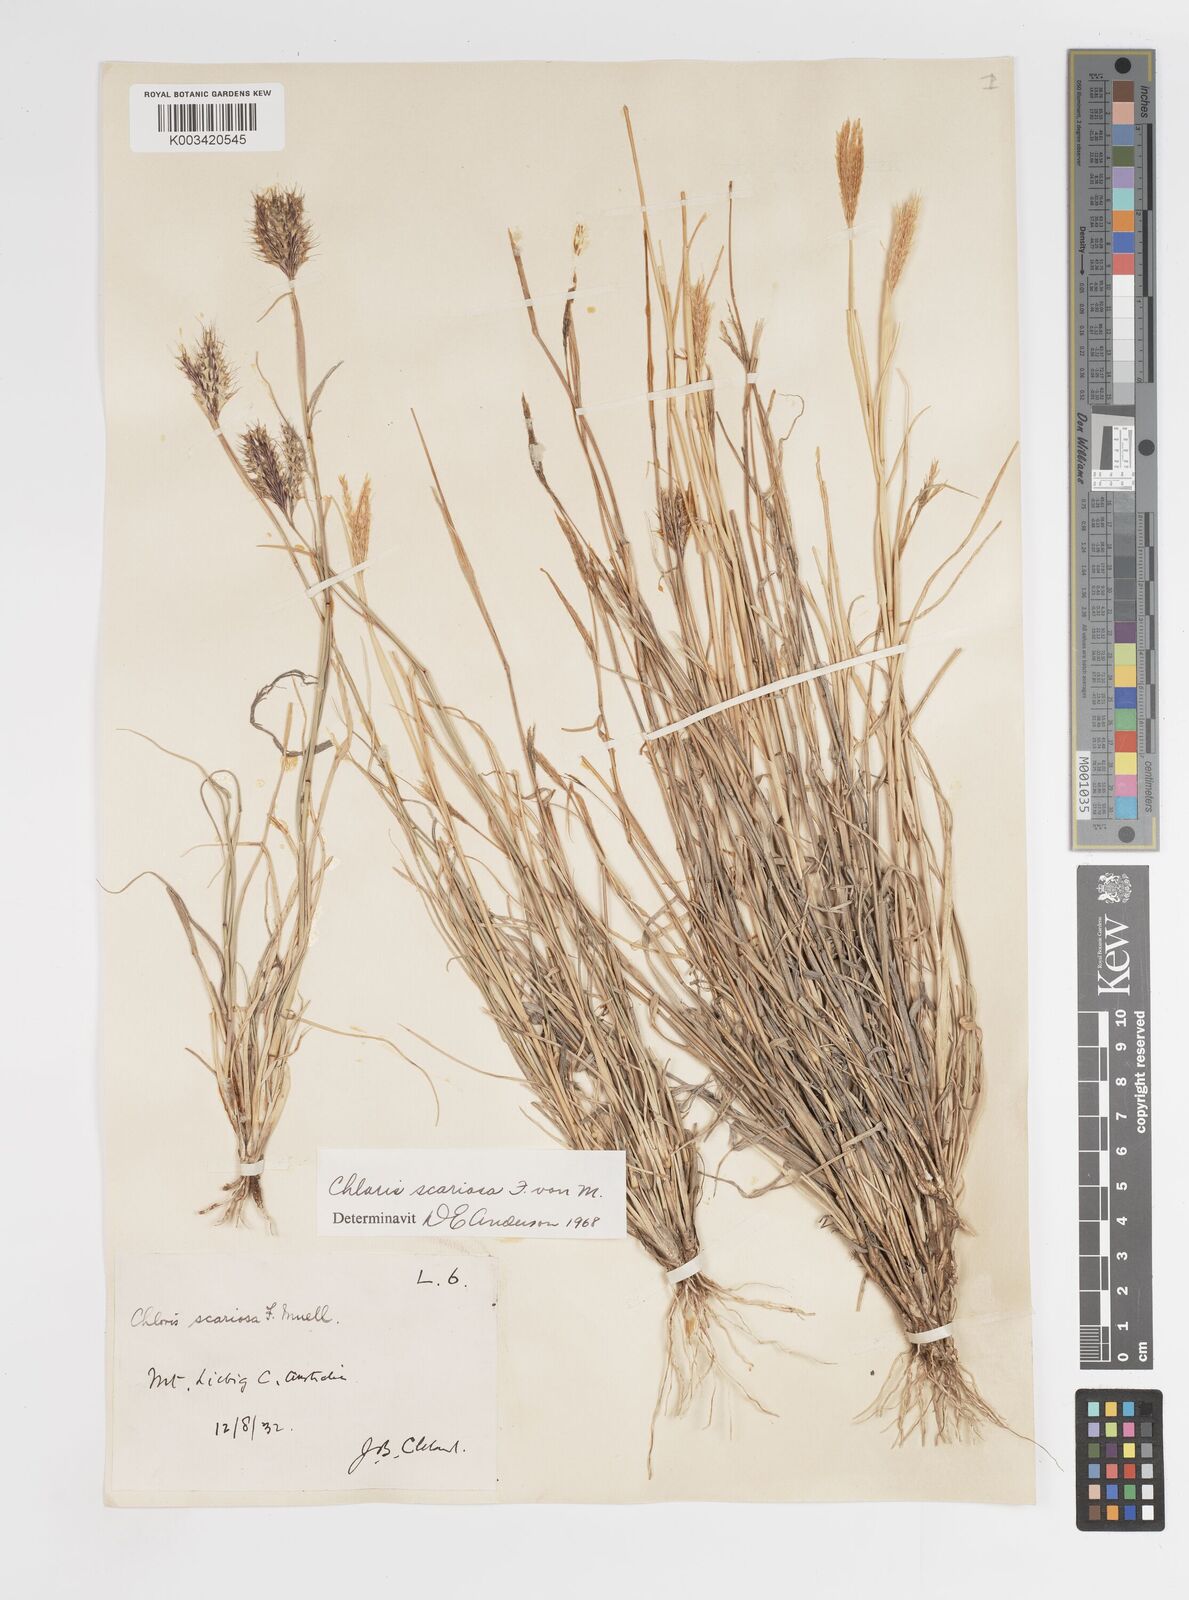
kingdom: Plantae
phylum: Tracheophyta
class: Liliopsida
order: Poales
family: Poaceae
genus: Oxychloris
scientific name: Oxychloris scariosa
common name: Winged windmill grass
